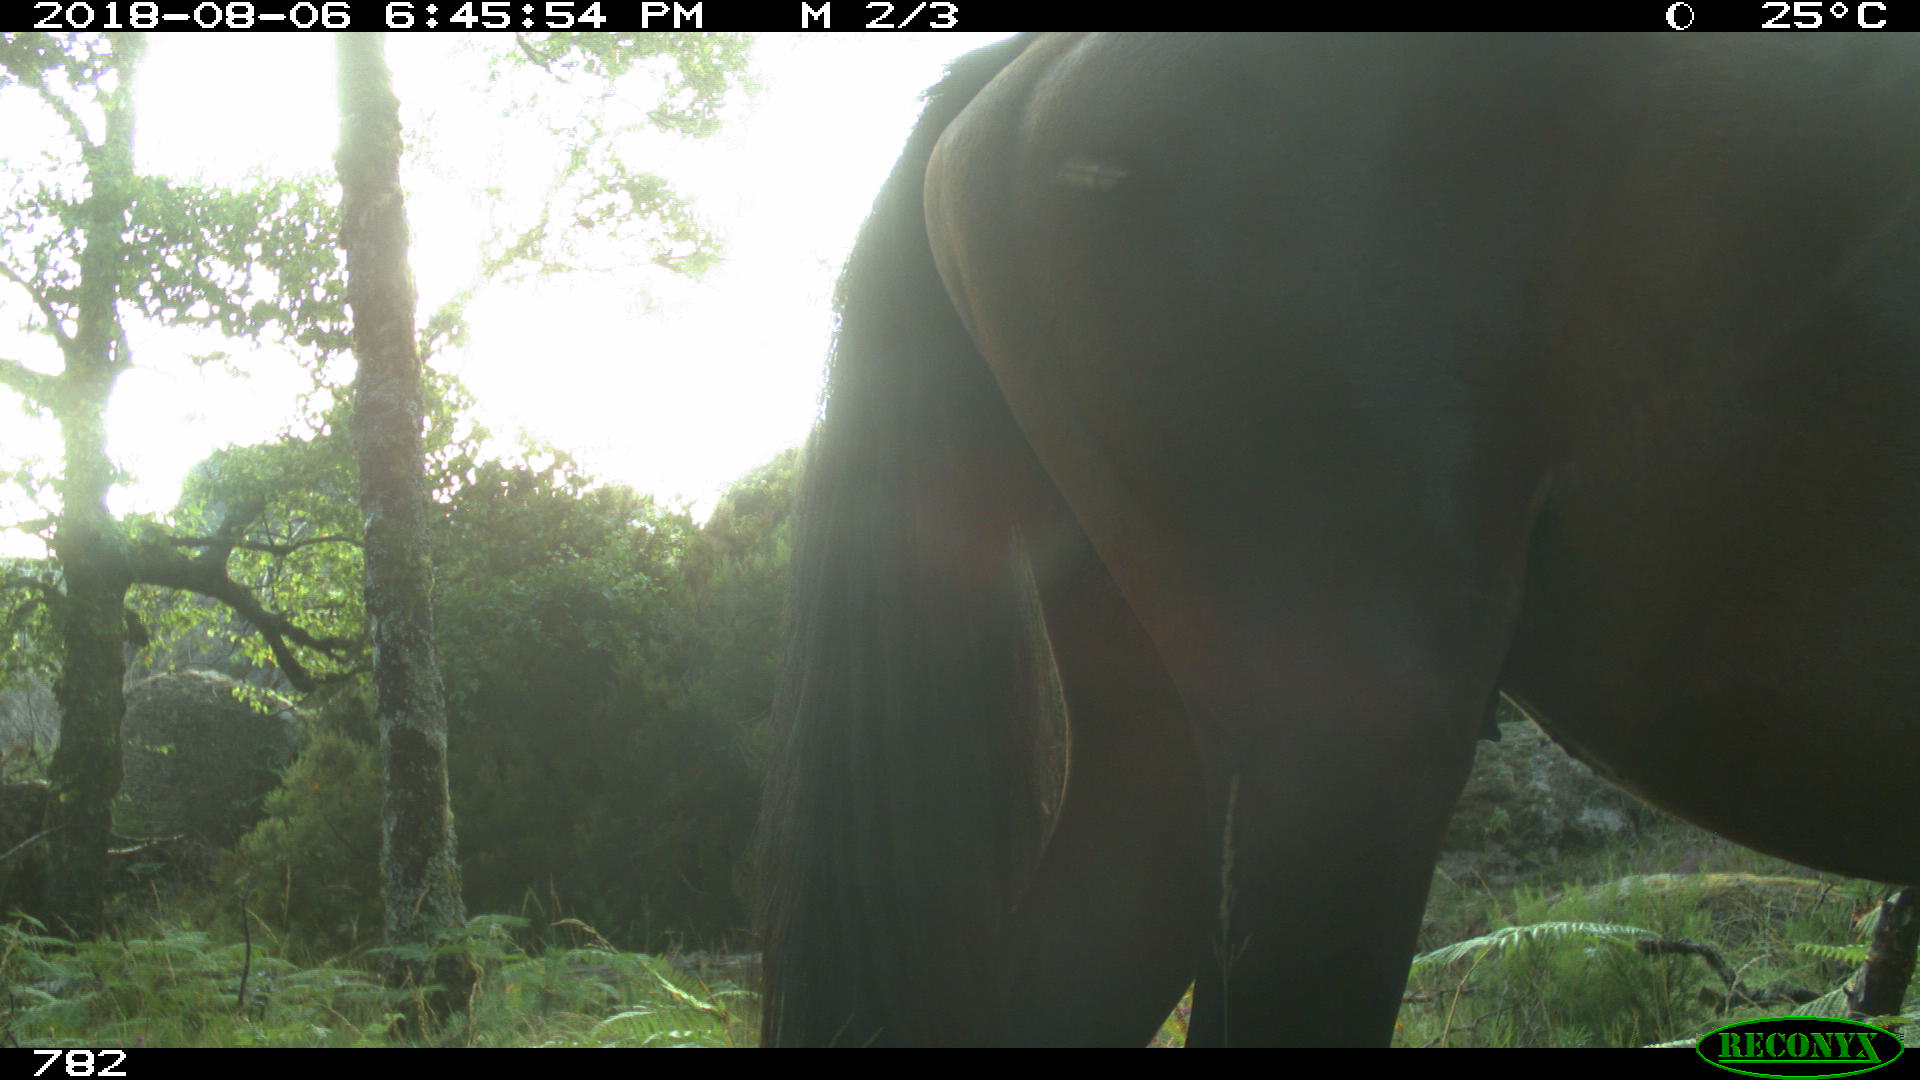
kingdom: Animalia
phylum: Chordata
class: Mammalia
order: Perissodactyla
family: Equidae
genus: Equus
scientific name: Equus caballus
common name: Horse
